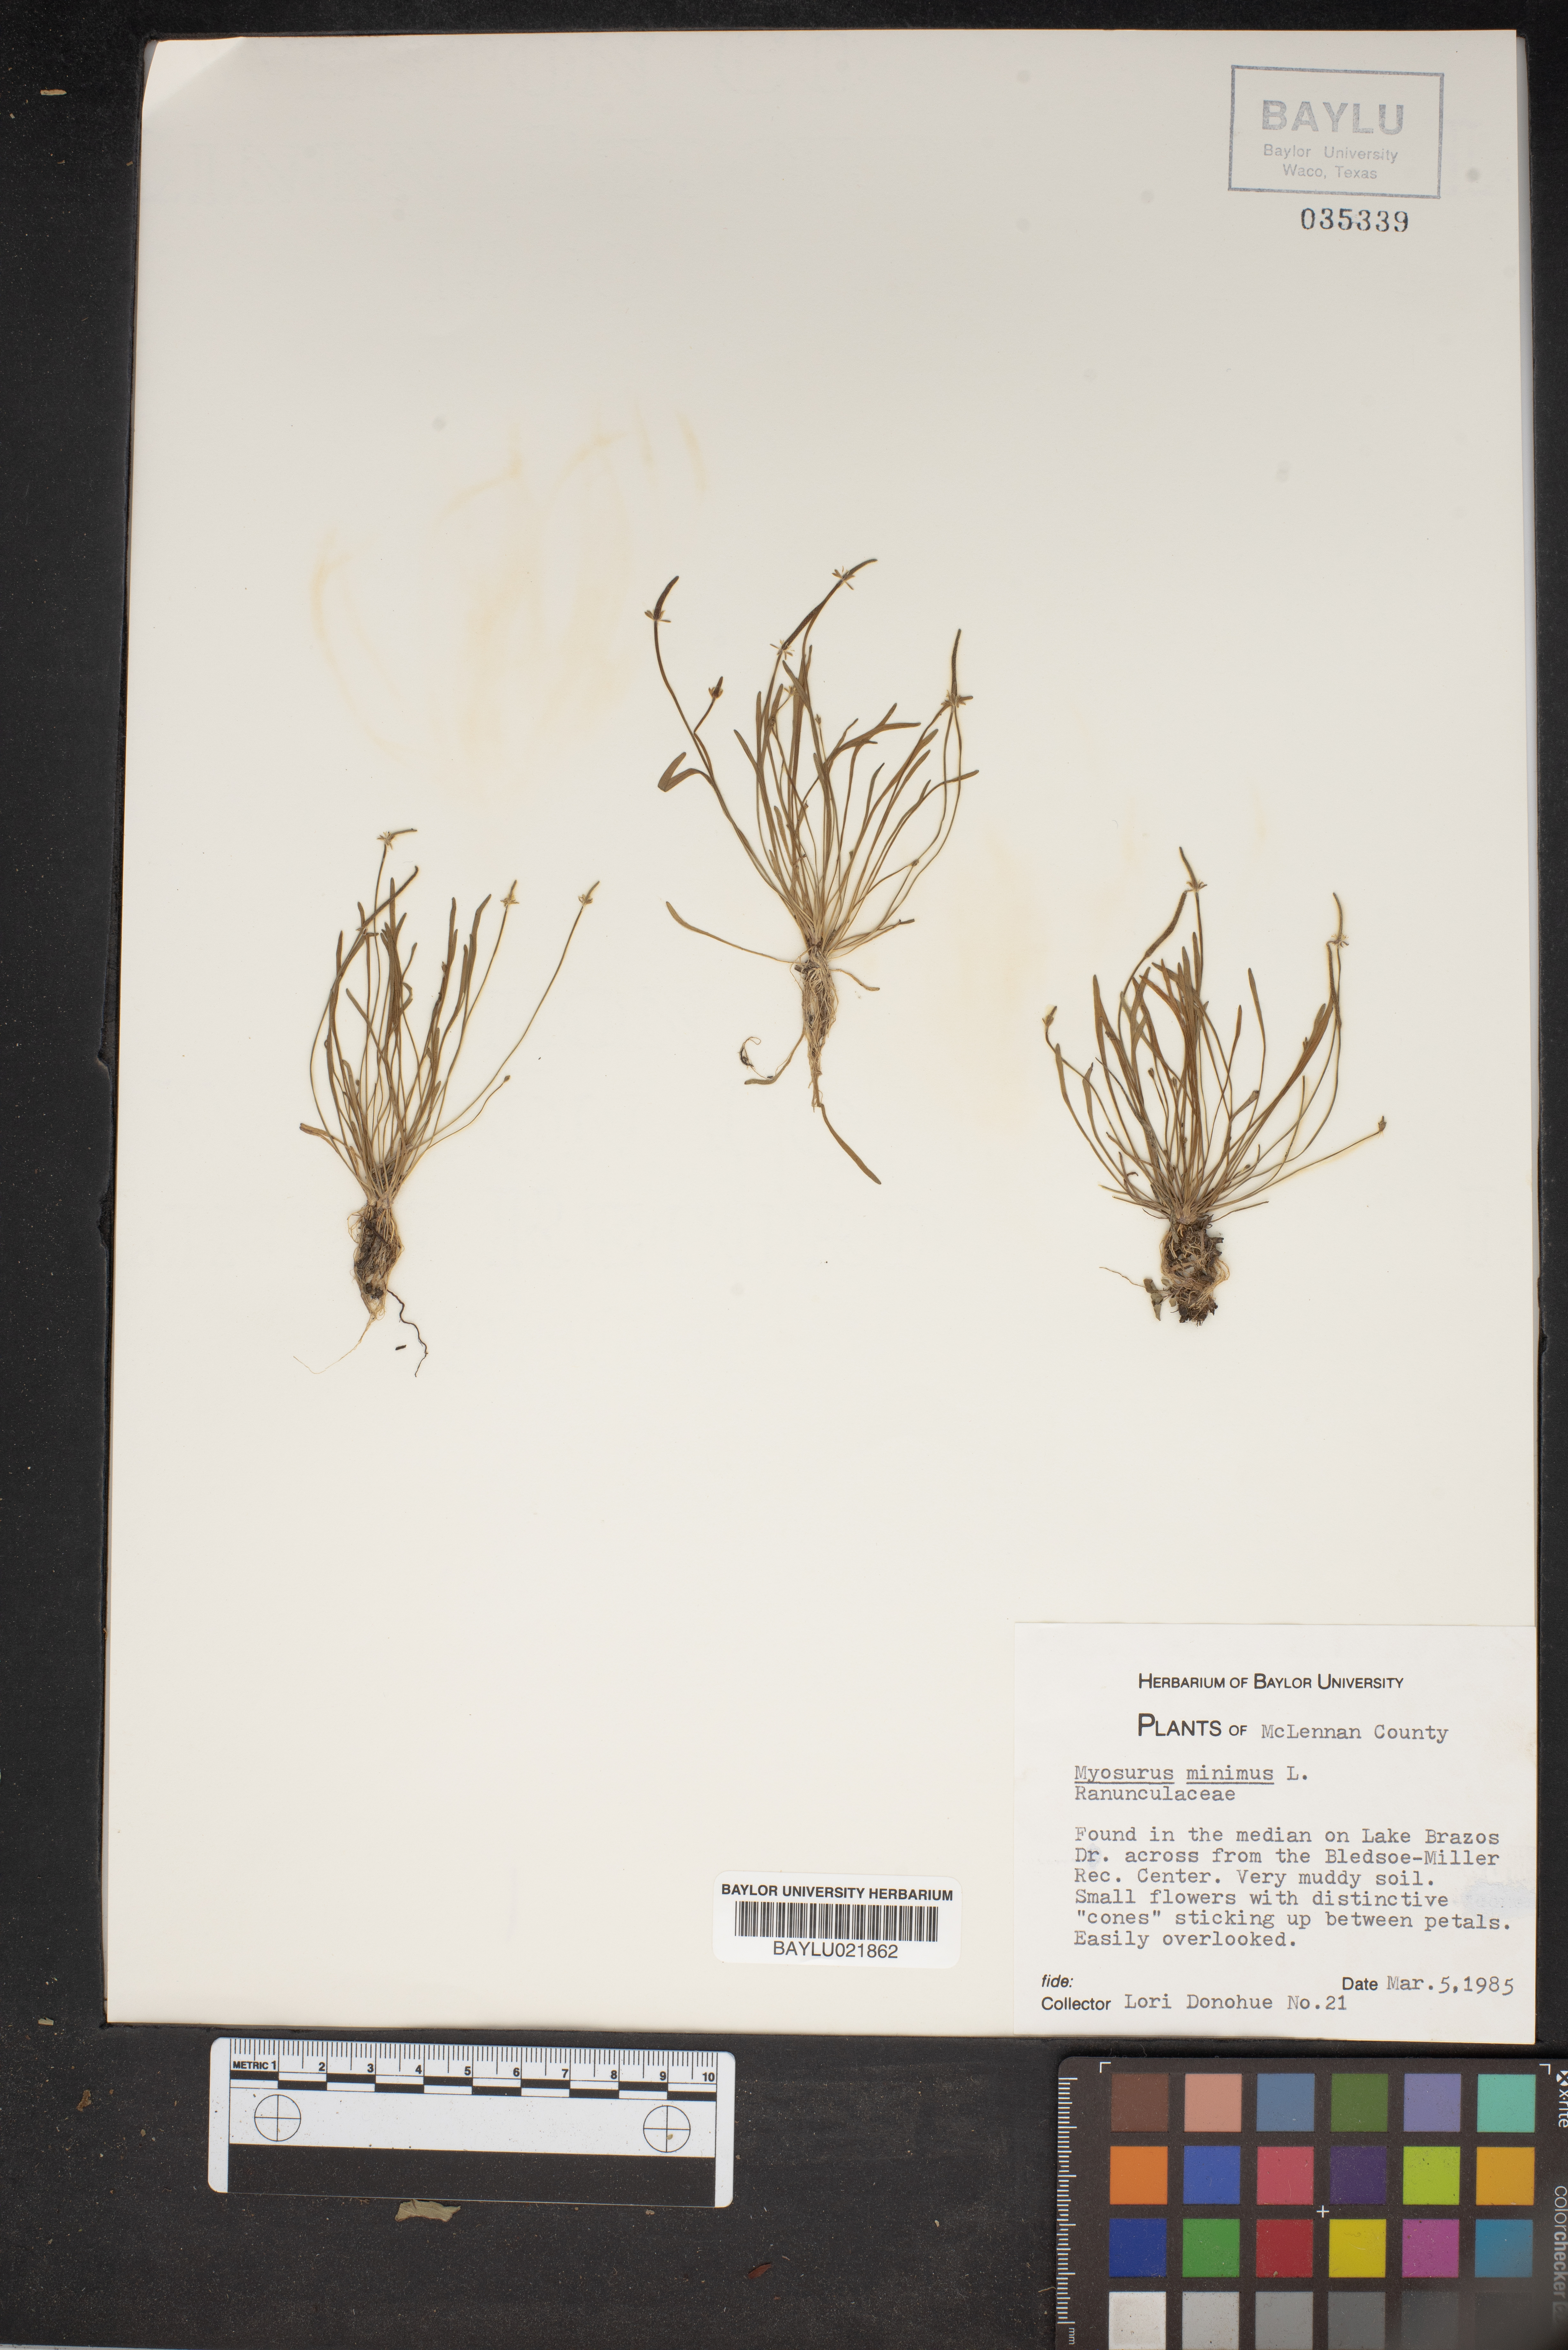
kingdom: Plantae
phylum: Tracheophyta
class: Magnoliopsida
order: Ranunculales
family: Ranunculaceae
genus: Myosurus
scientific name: Myosurus minimus
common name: Mousetail
